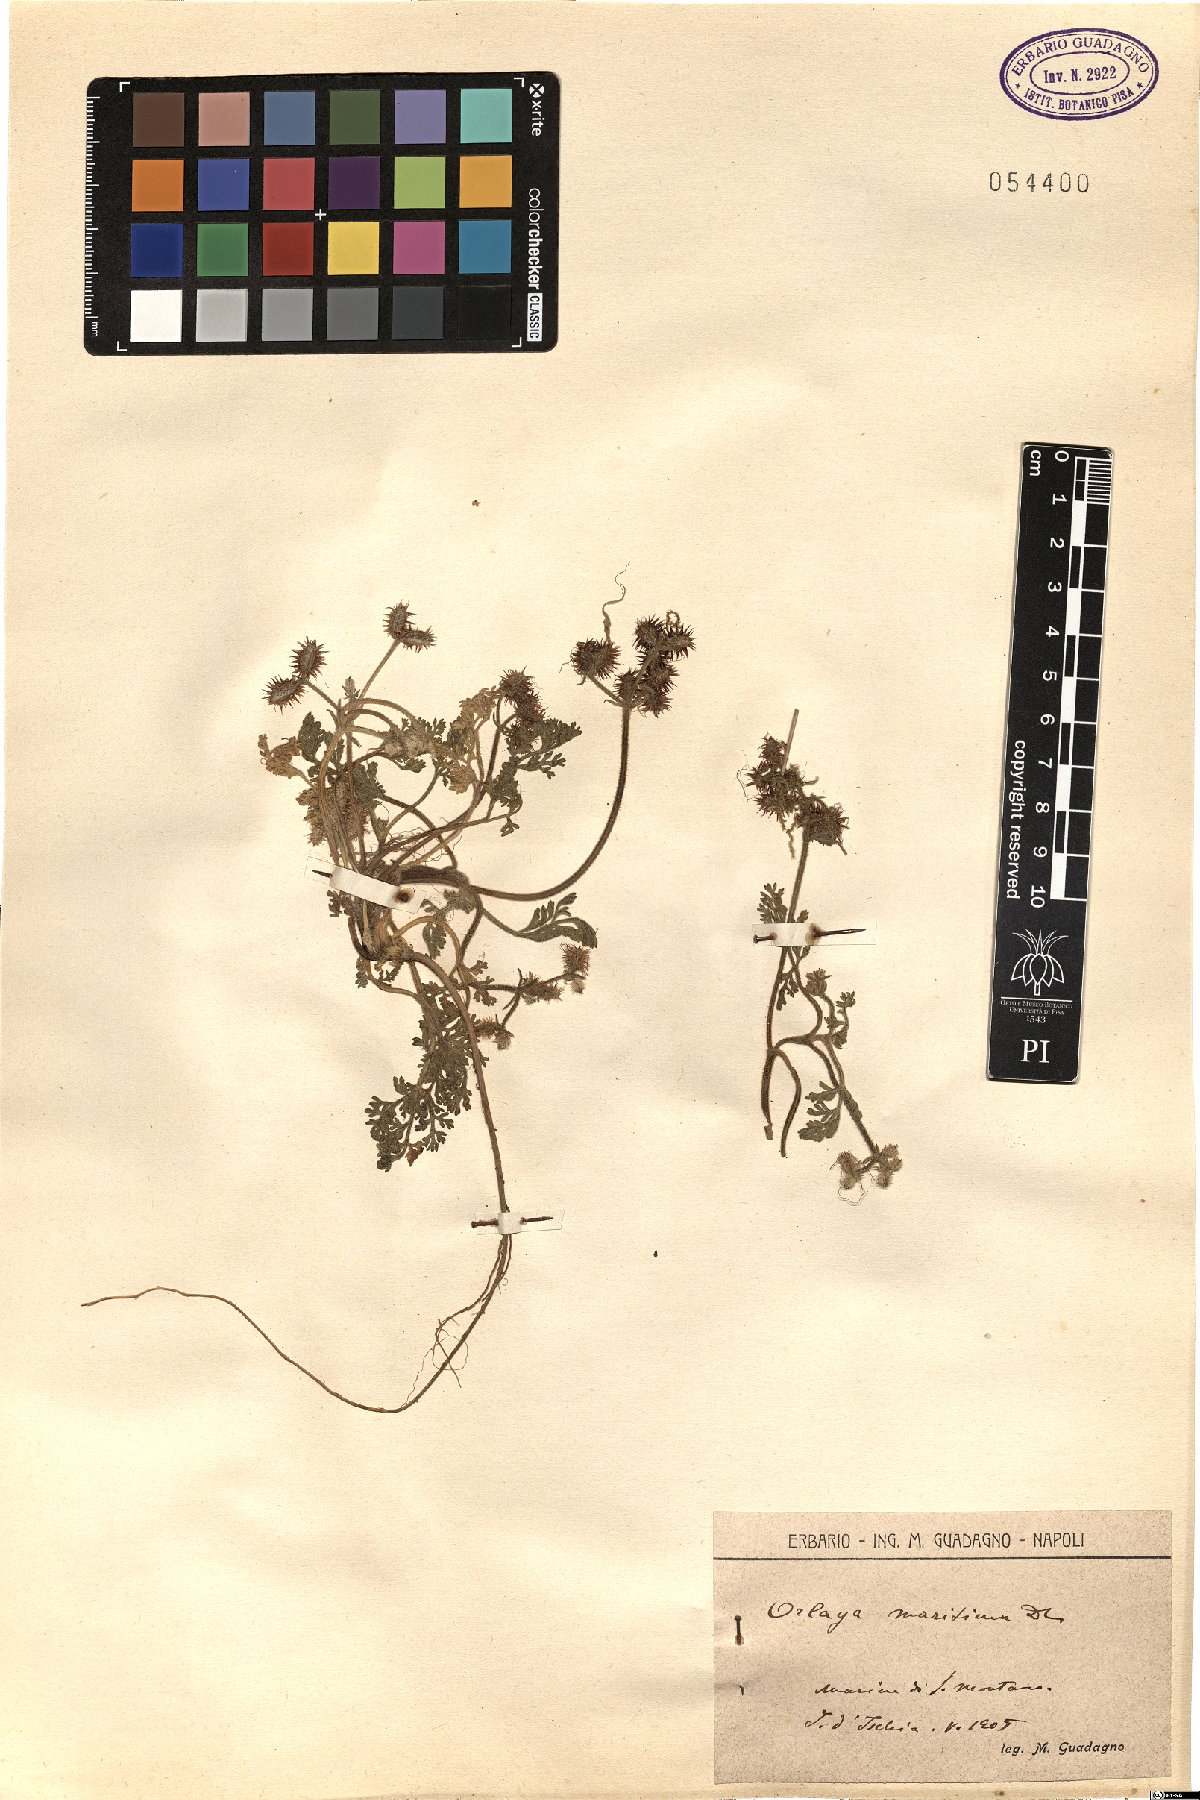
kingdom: Plantae
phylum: Tracheophyta
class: Magnoliopsida
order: Apiales
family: Apiaceae
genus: Daucus
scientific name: Daucus pumilus
